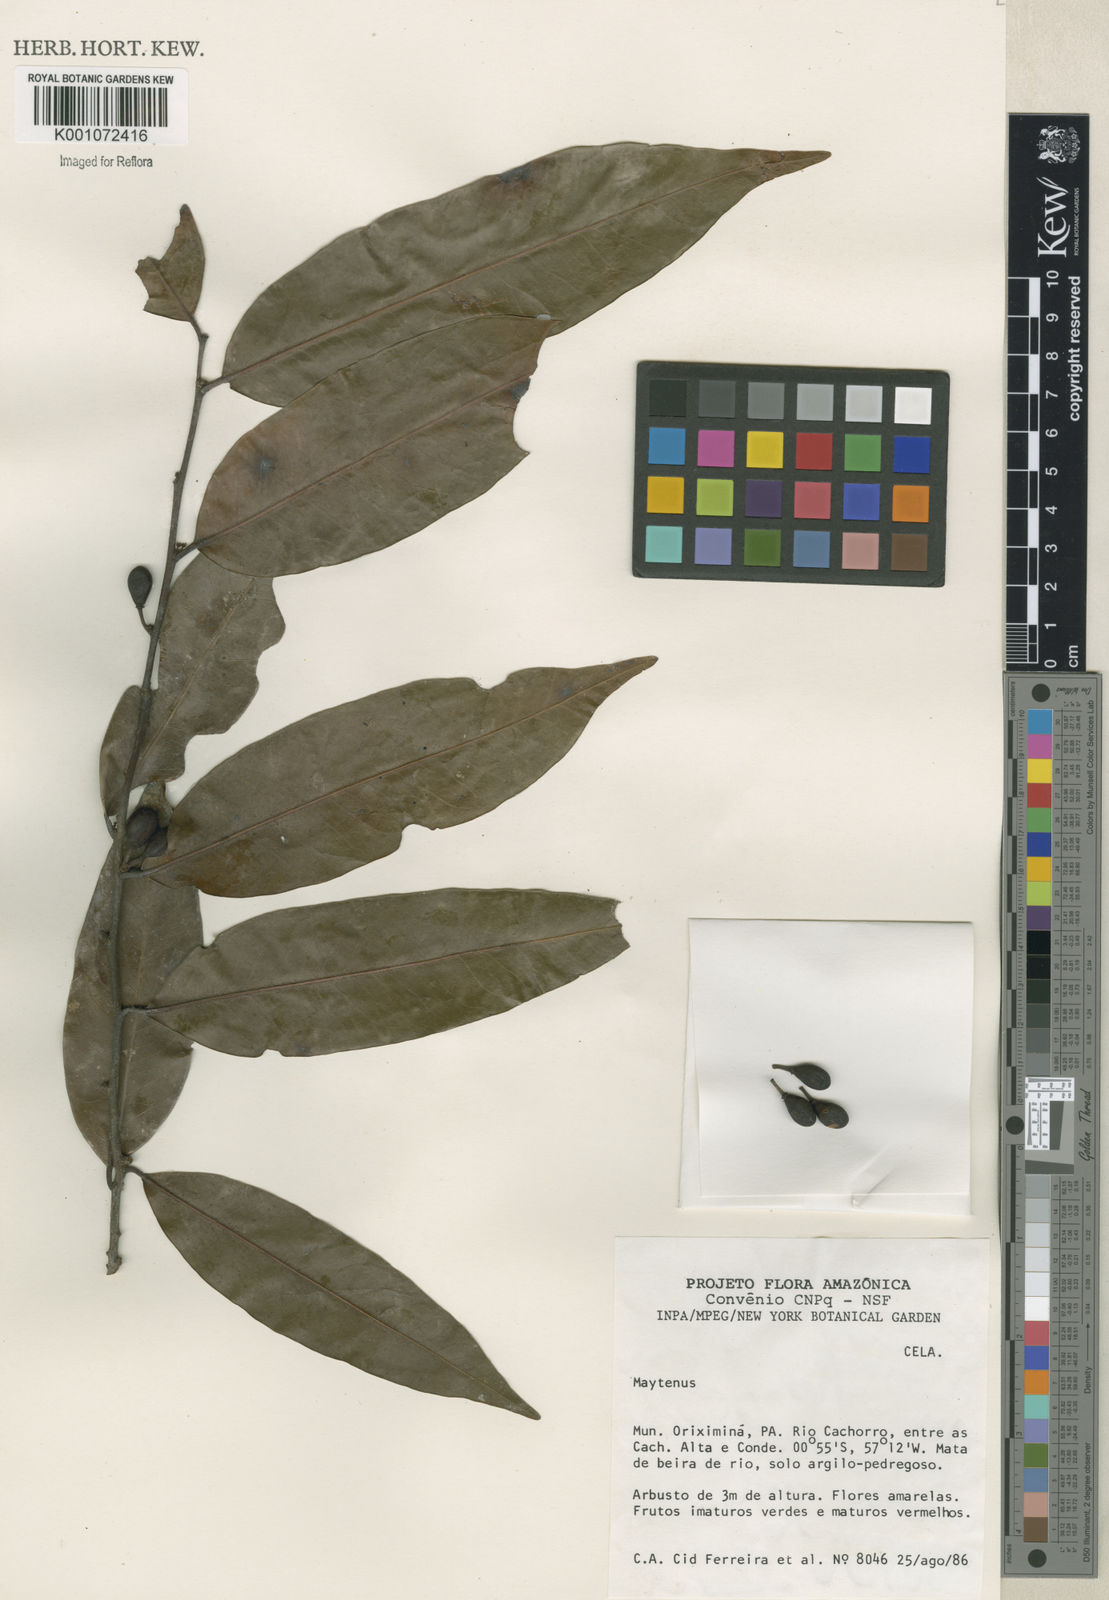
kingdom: Plantae
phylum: Tracheophyta
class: Magnoliopsida
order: Celastrales
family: Celastraceae
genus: Maytenus
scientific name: Maytenus
